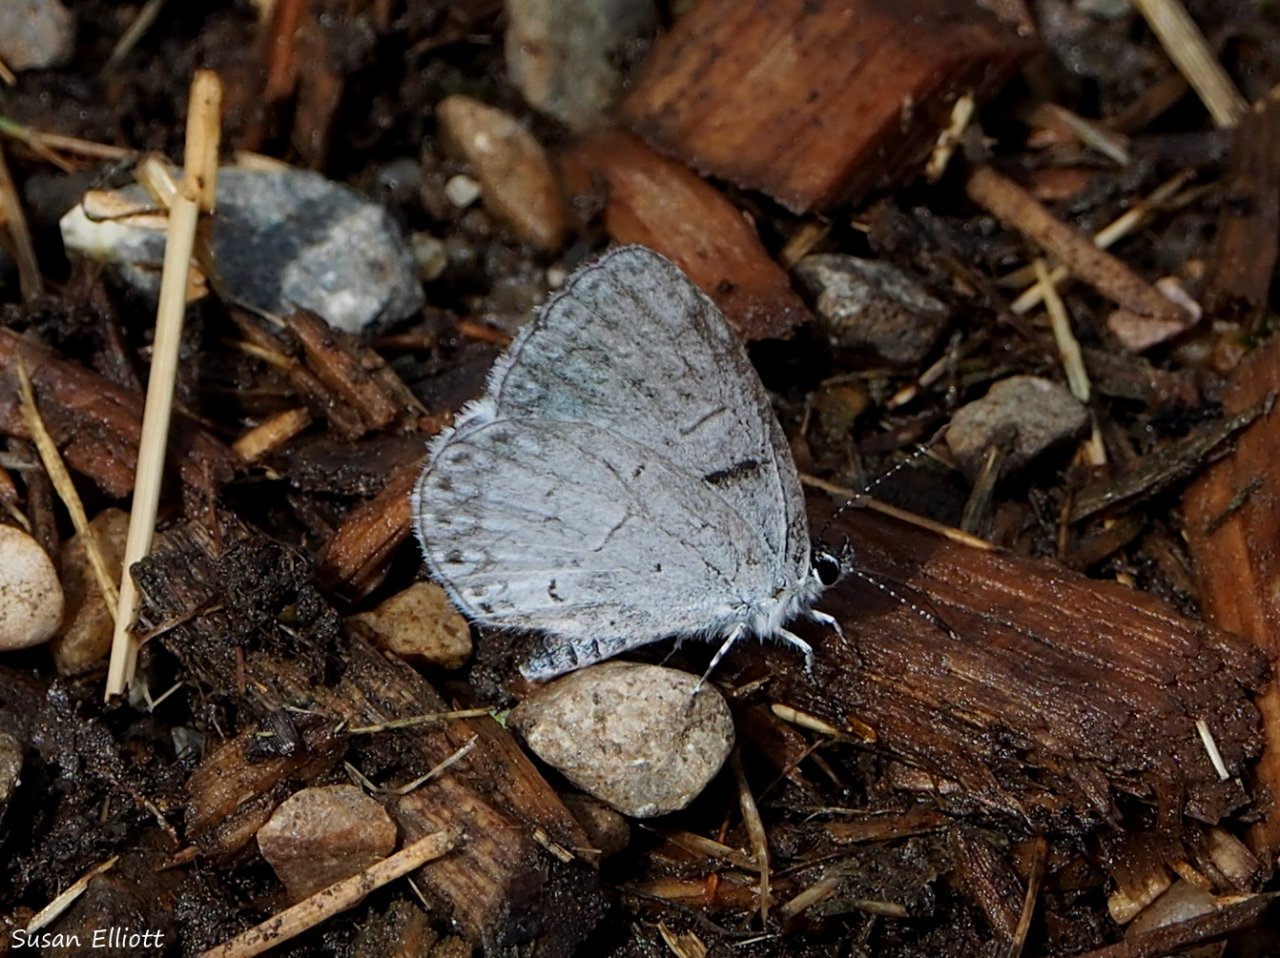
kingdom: Animalia
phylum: Arthropoda
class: Insecta
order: Lepidoptera
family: Lycaenidae
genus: Celastrina
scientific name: Celastrina
